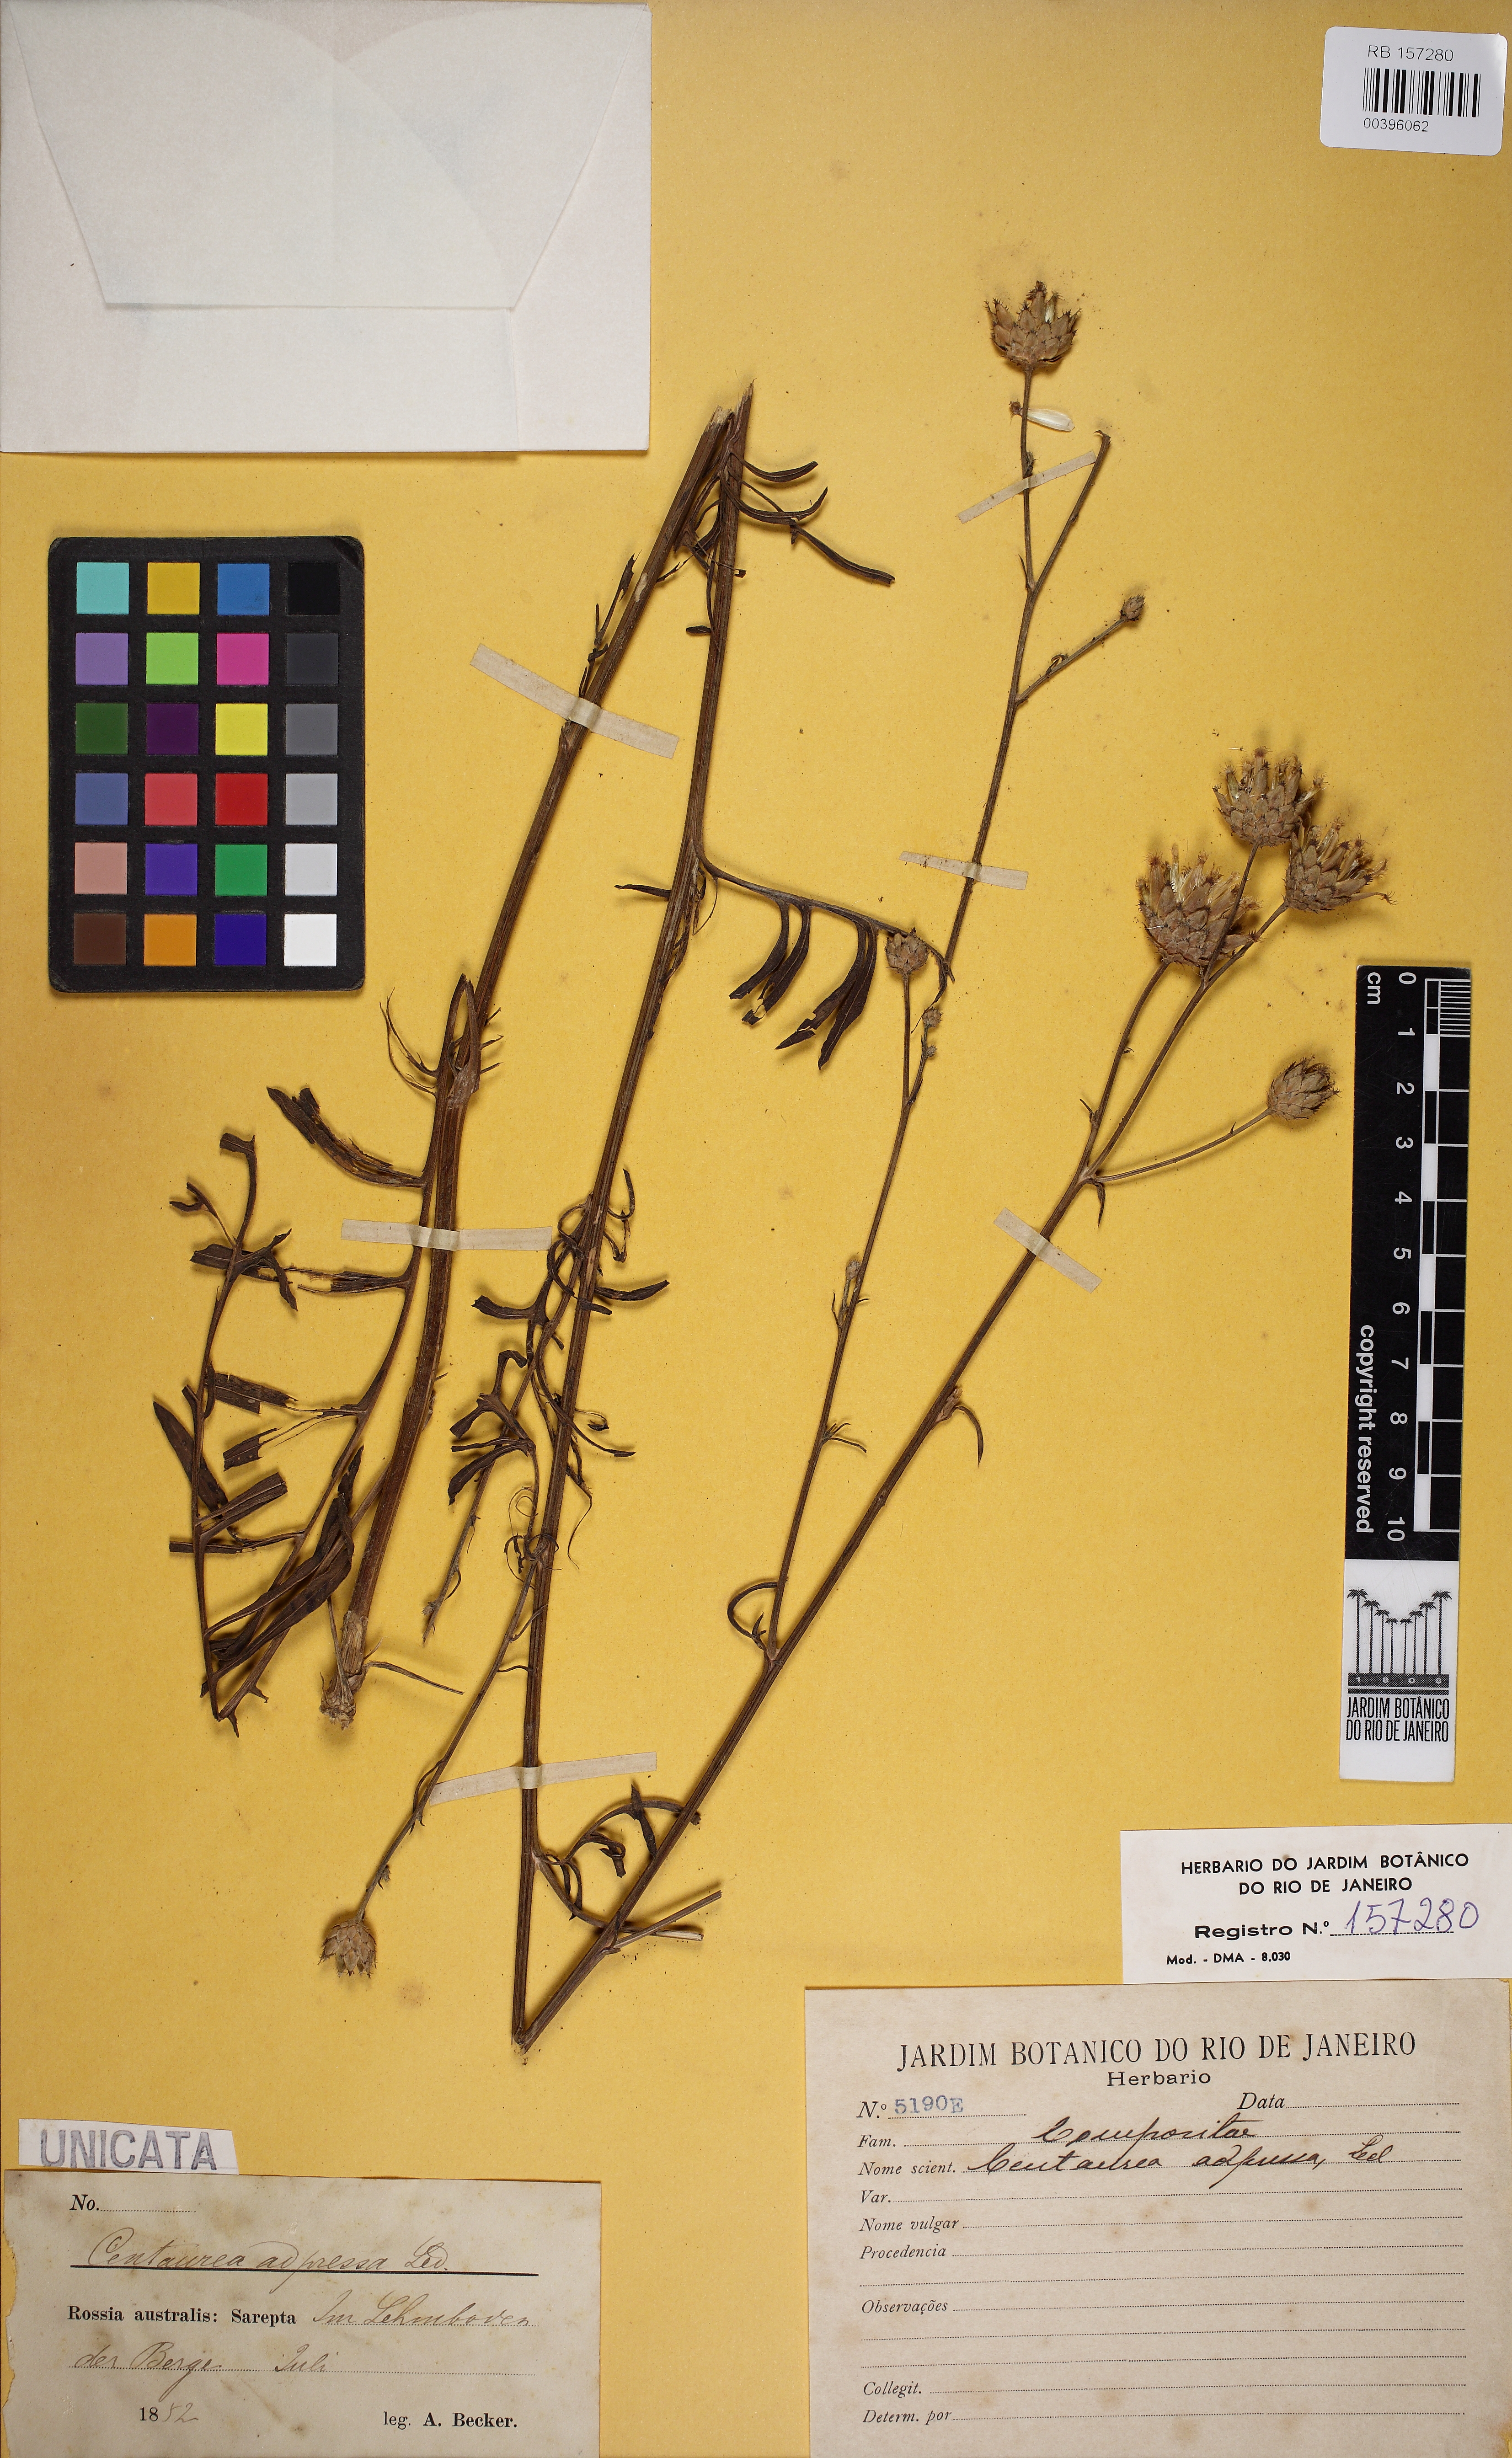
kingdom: Plantae
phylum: Tracheophyta
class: Magnoliopsida
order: Asterales
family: Asteraceae
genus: Centaurea
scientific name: Centaurea adpressa
